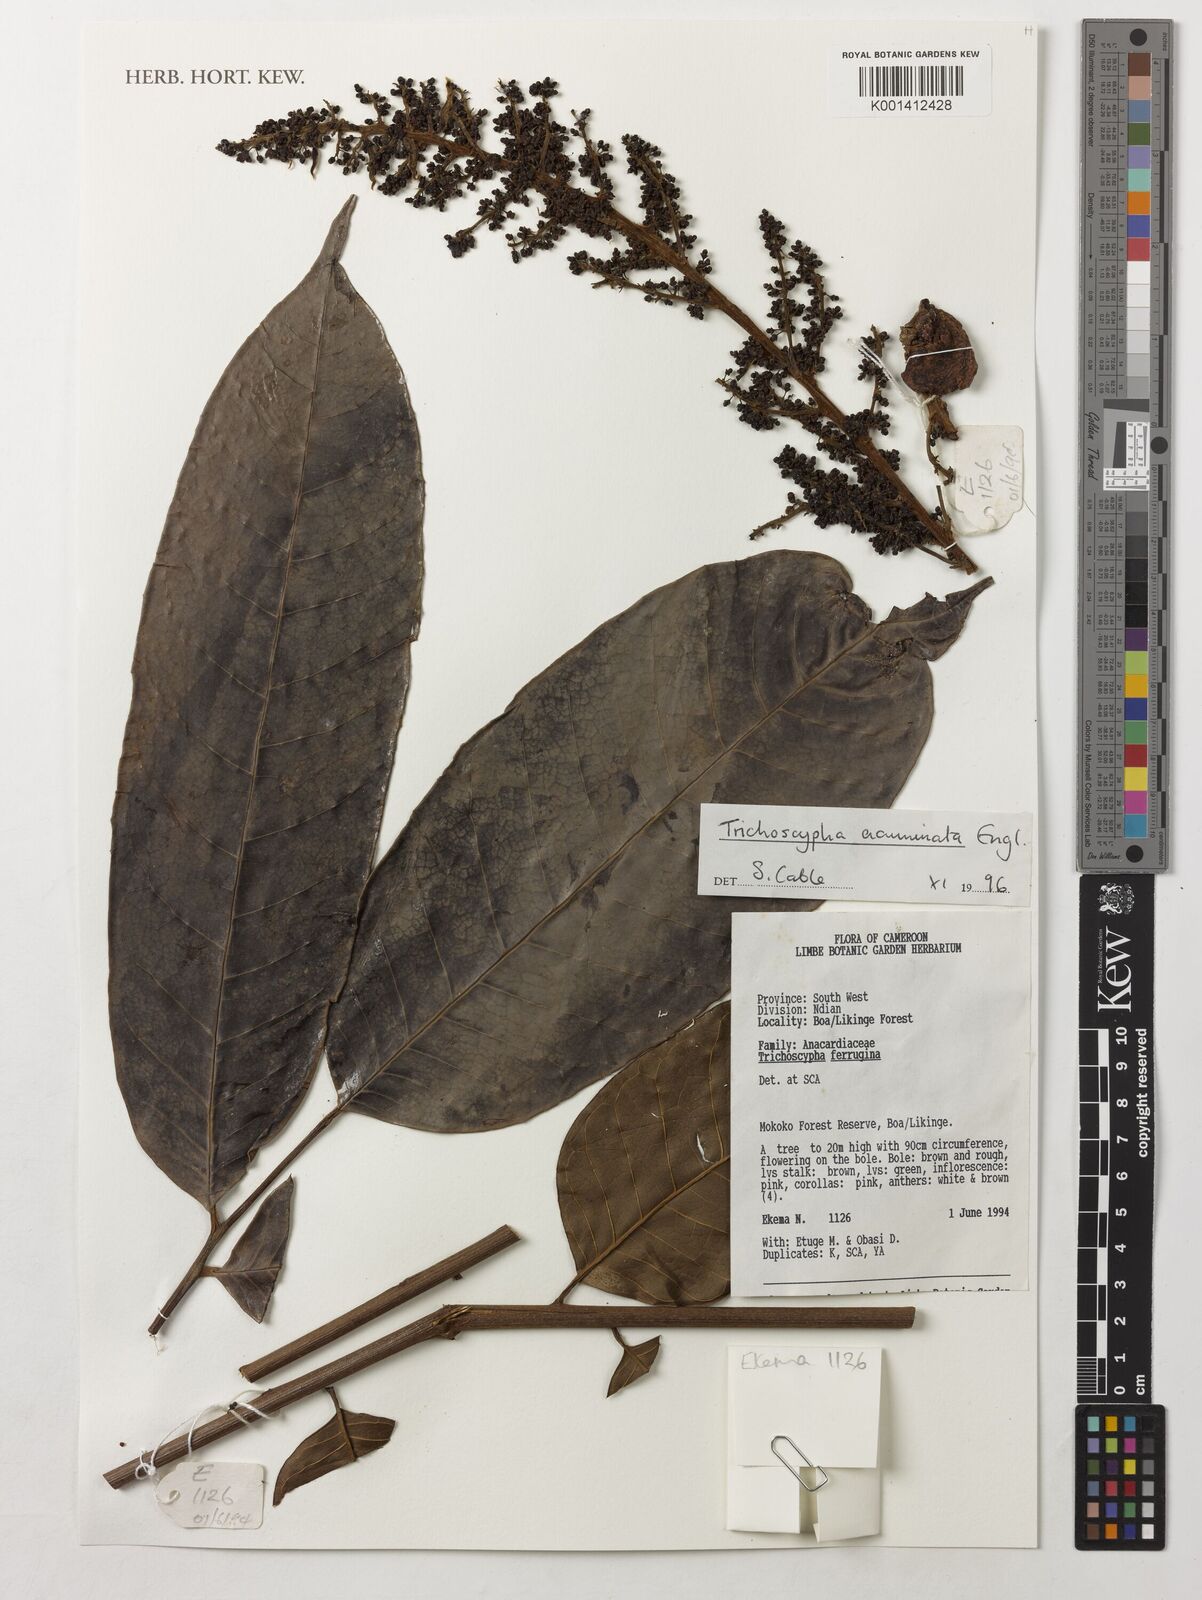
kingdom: Plantae
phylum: Tracheophyta
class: Magnoliopsida
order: Sapindales
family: Anacardiaceae
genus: Trichoscypha
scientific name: Trichoscypha acuminata
